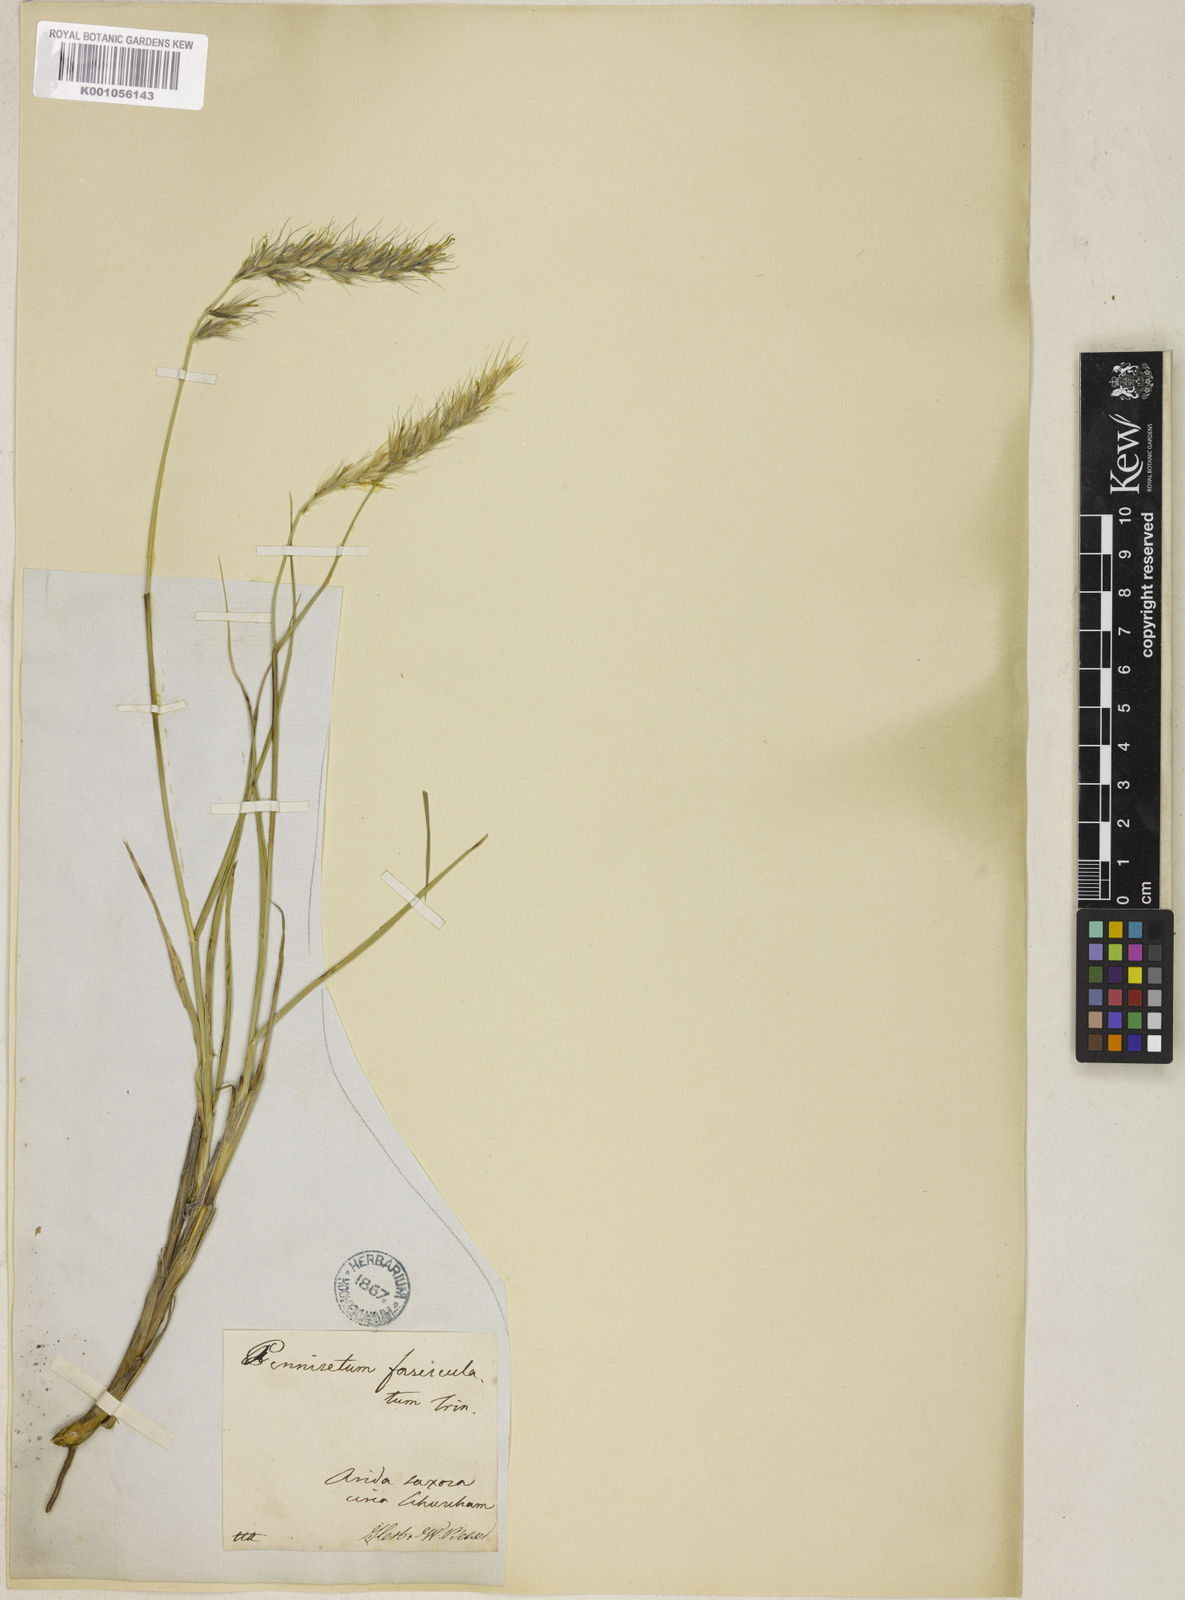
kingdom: Plantae
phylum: Tracheophyta
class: Liliopsida
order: Poales
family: Poaceae
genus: Cenchrus
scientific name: Cenchrus orientalis
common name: Oriental fountain grass
